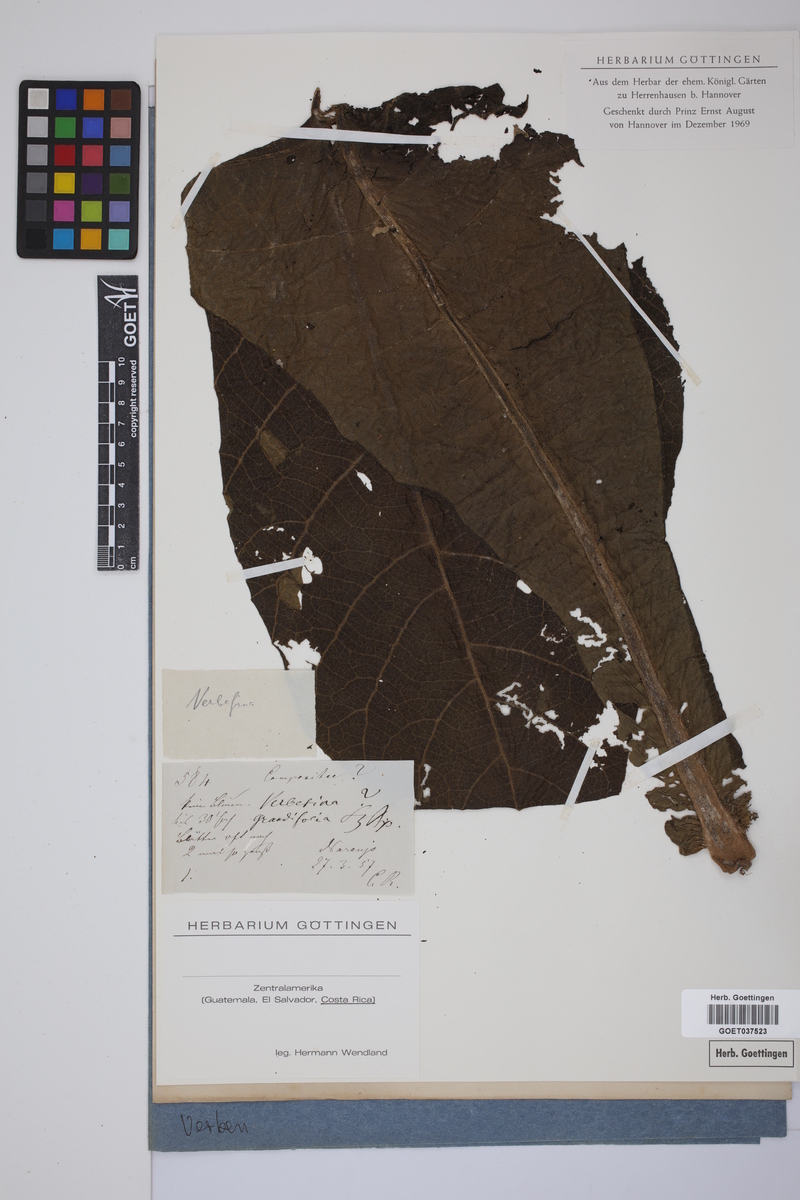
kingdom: Plantae
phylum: Tracheophyta
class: Magnoliopsida
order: Asterales
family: Asteraceae
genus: Verbesina
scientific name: Verbesina grandifolia
